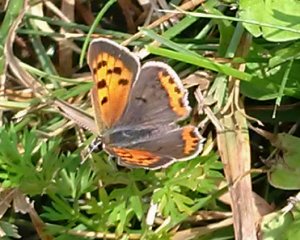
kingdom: Animalia
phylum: Arthropoda
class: Insecta
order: Lepidoptera
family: Lycaenidae
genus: Lycaena
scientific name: Lycaena phlaeas
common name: American Copper
